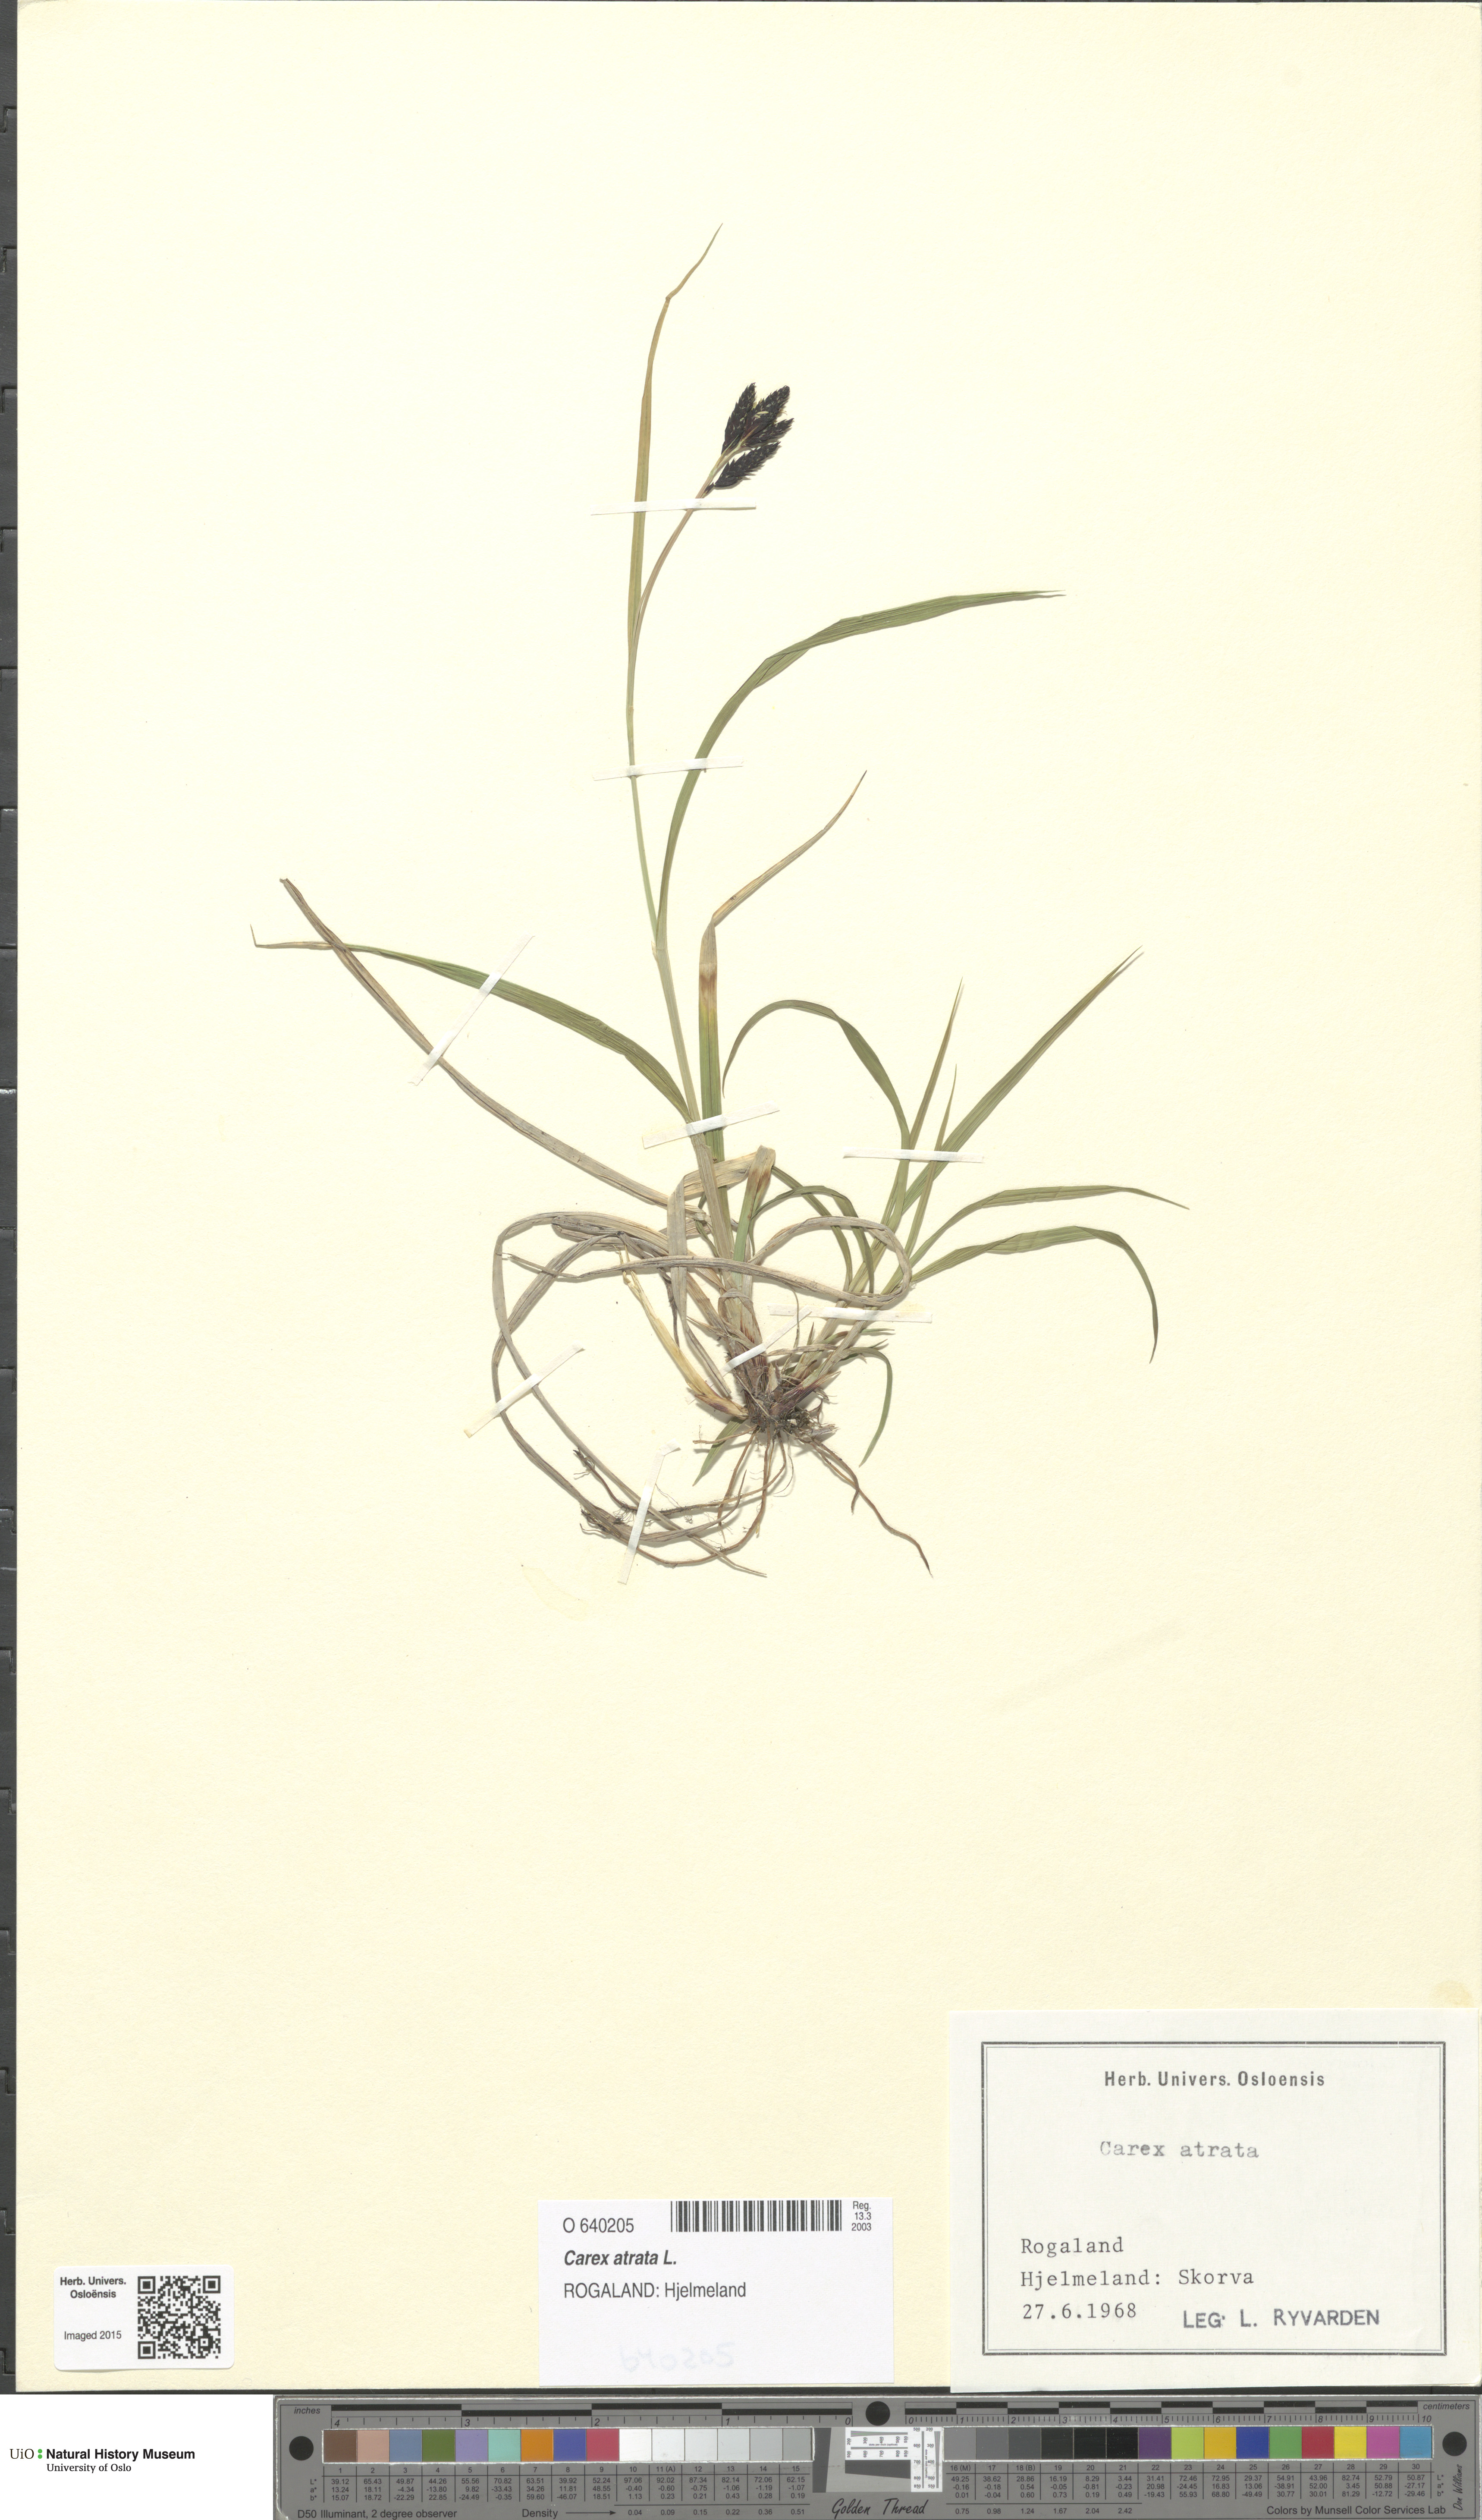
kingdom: Plantae
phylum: Tracheophyta
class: Liliopsida
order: Poales
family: Cyperaceae
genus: Carex
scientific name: Carex atrata
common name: Black alpine sedge
